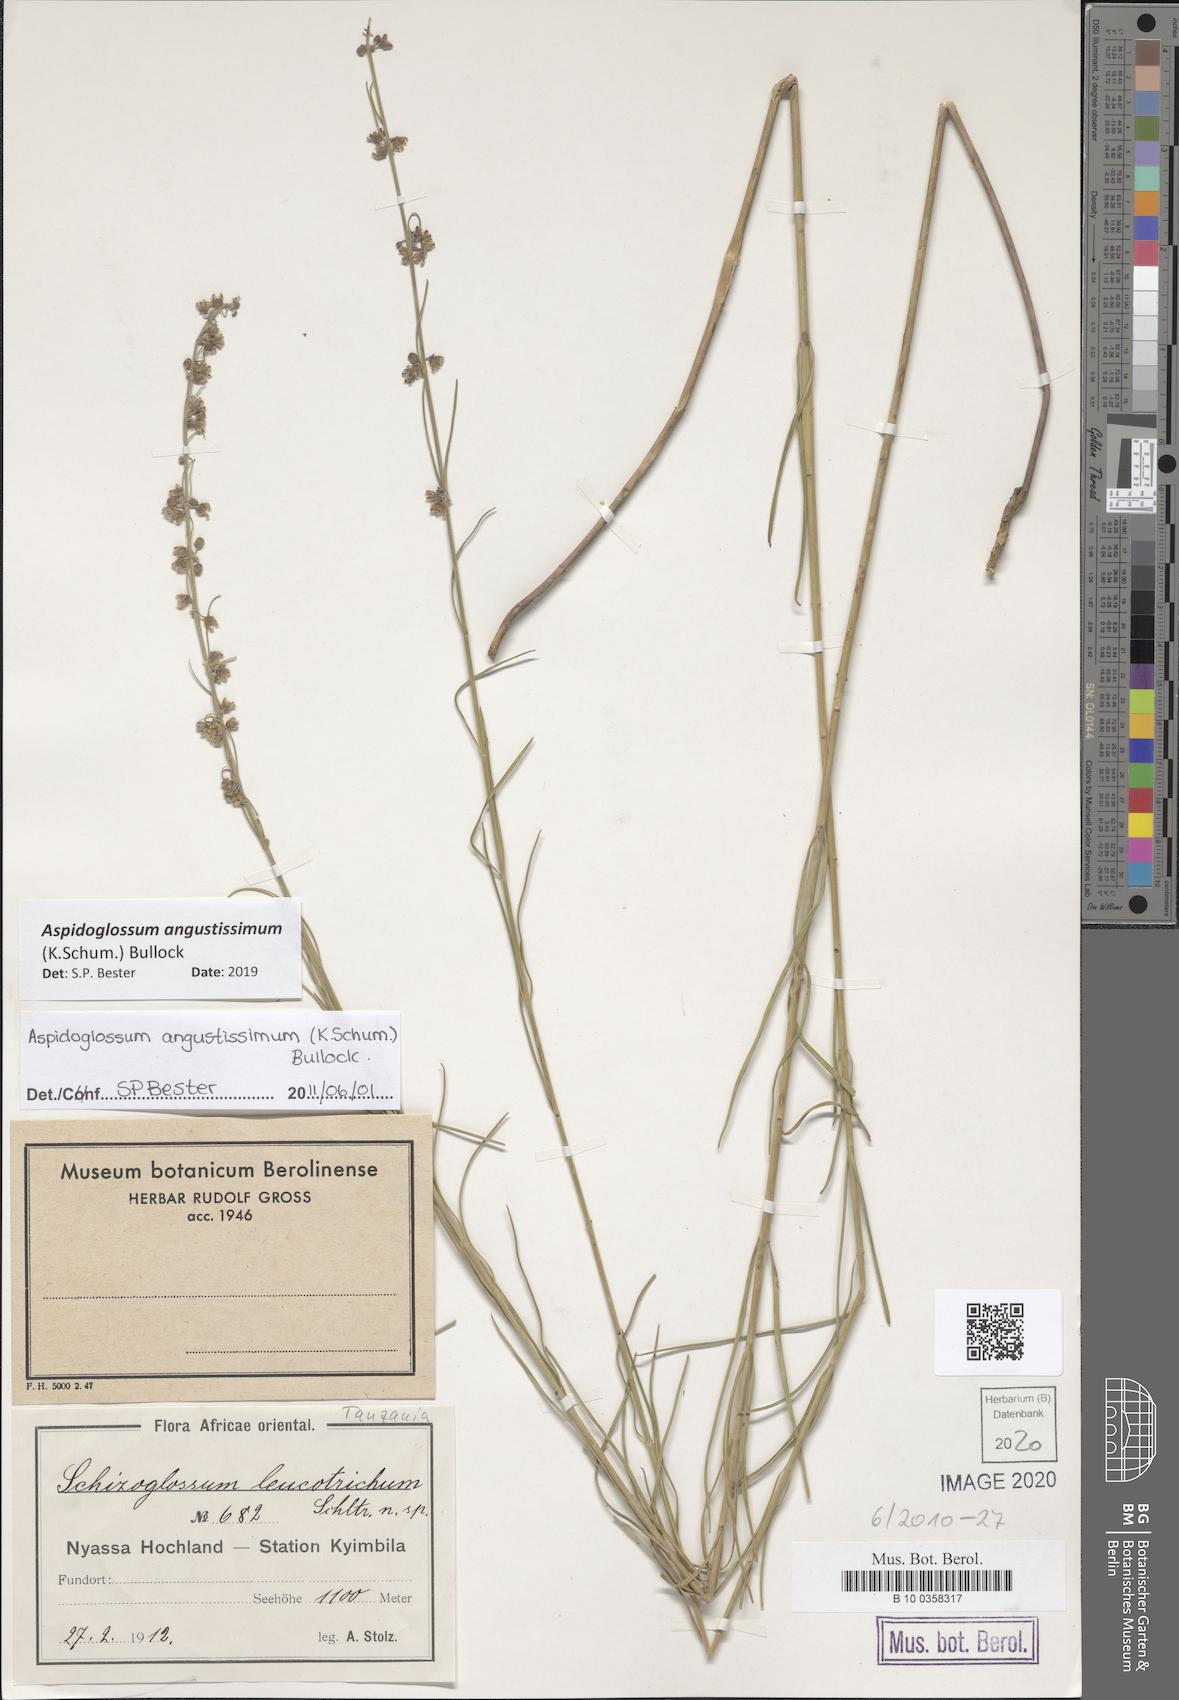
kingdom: Plantae
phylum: Tracheophyta
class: Magnoliopsida
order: Gentianales
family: Apocynaceae
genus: Aspidoglossum
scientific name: Aspidoglossum angustissimum
